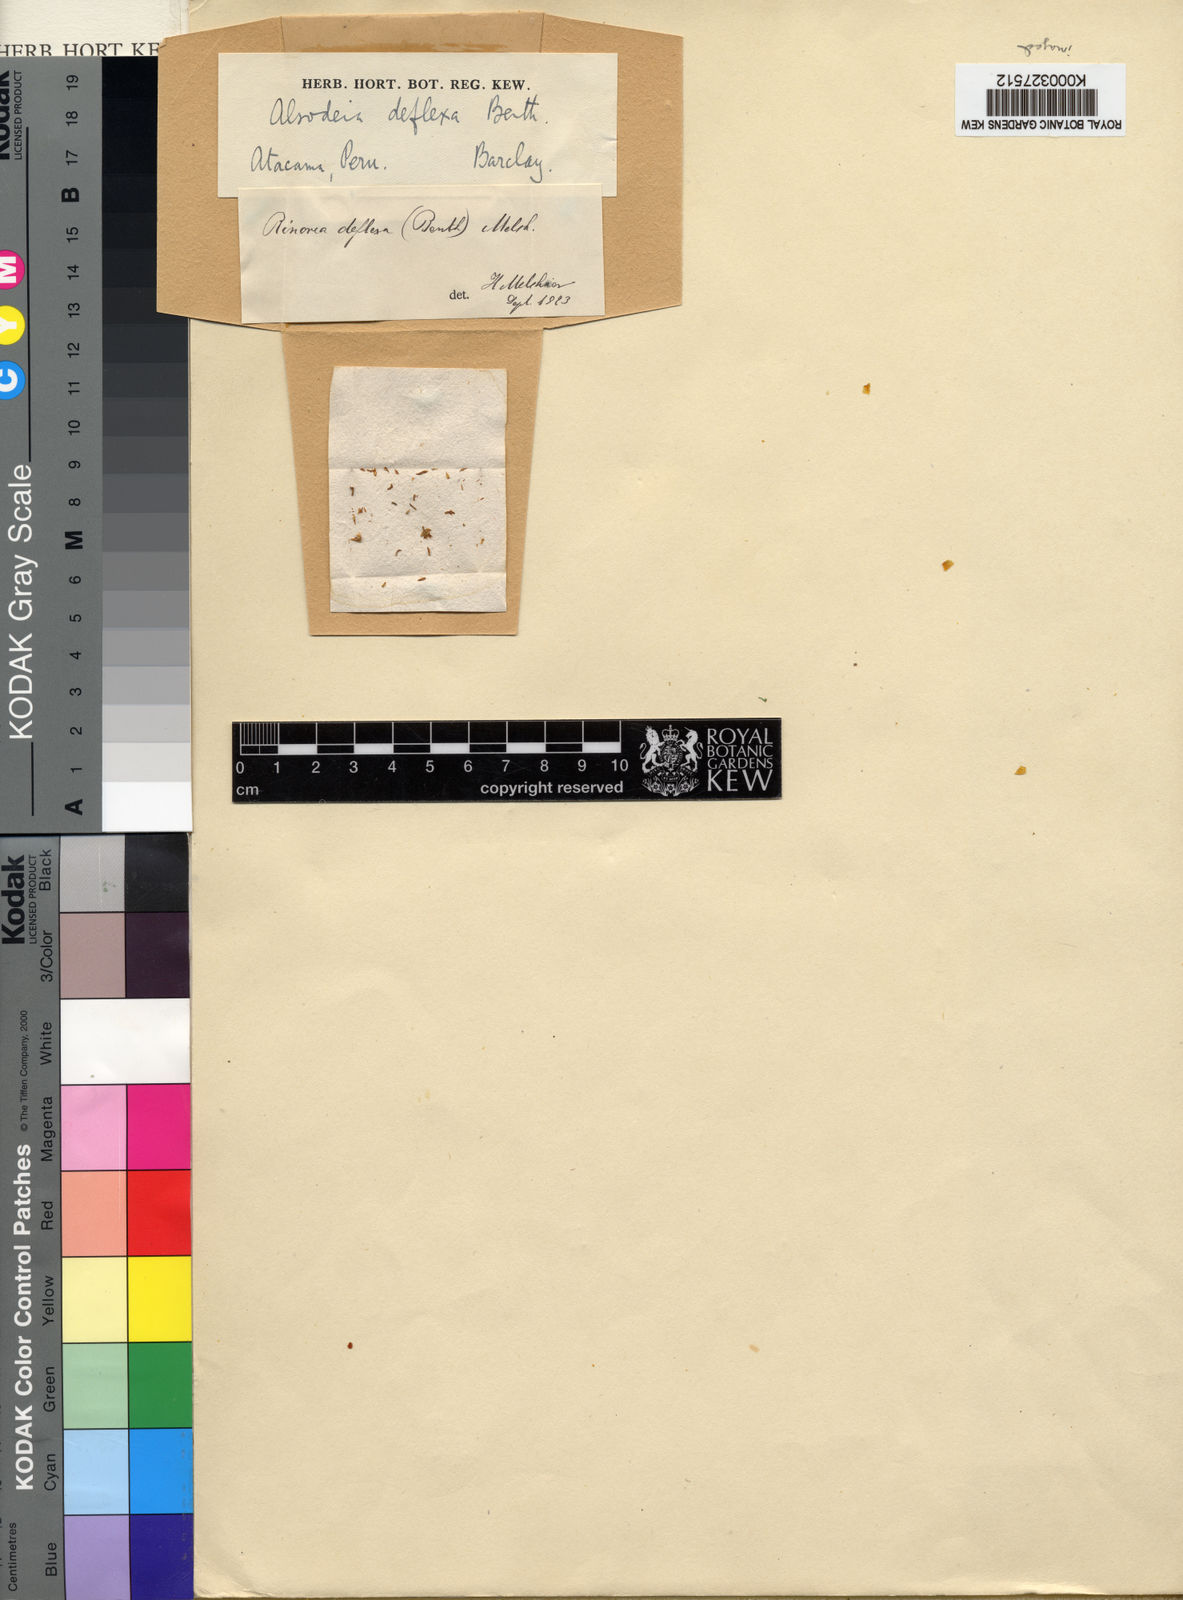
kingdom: Plantae
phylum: Tracheophyta
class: Magnoliopsida
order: Malpighiales
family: Violaceae
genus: Rinorea
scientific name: Rinorea deflexa
